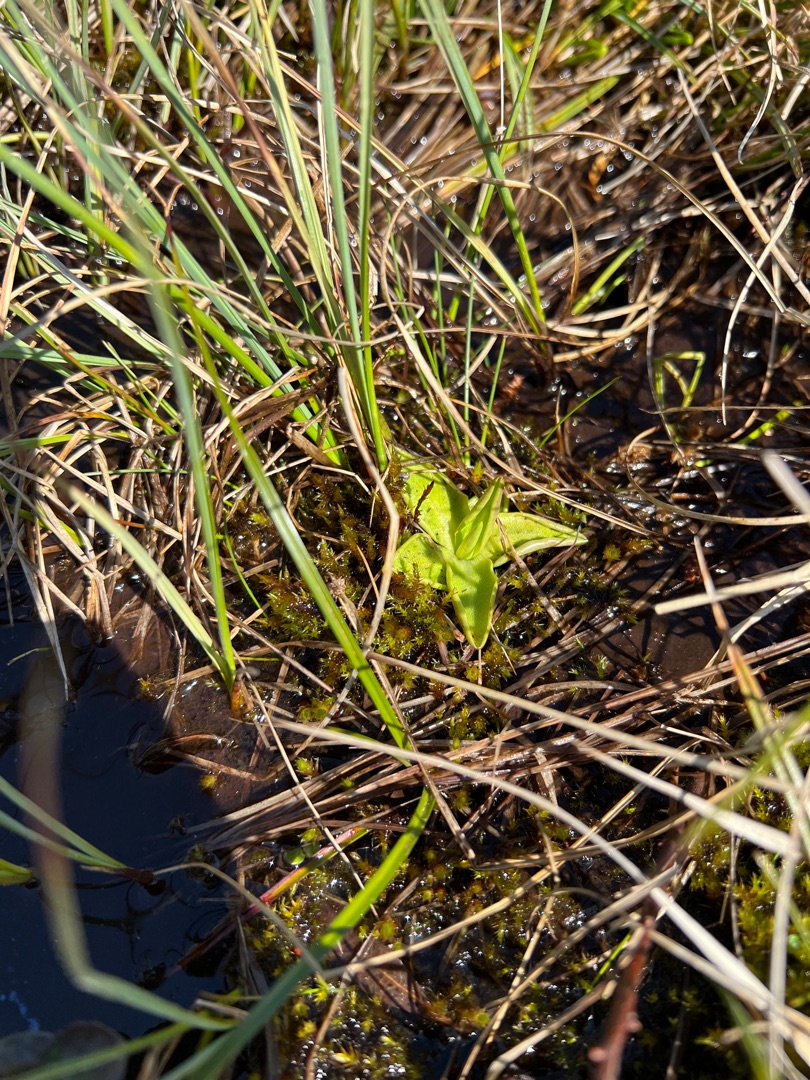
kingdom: Plantae
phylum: Tracheophyta
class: Magnoliopsida
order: Lamiales
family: Lentibulariaceae
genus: Pinguicula
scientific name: Pinguicula vulgaris
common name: Vibefedt
